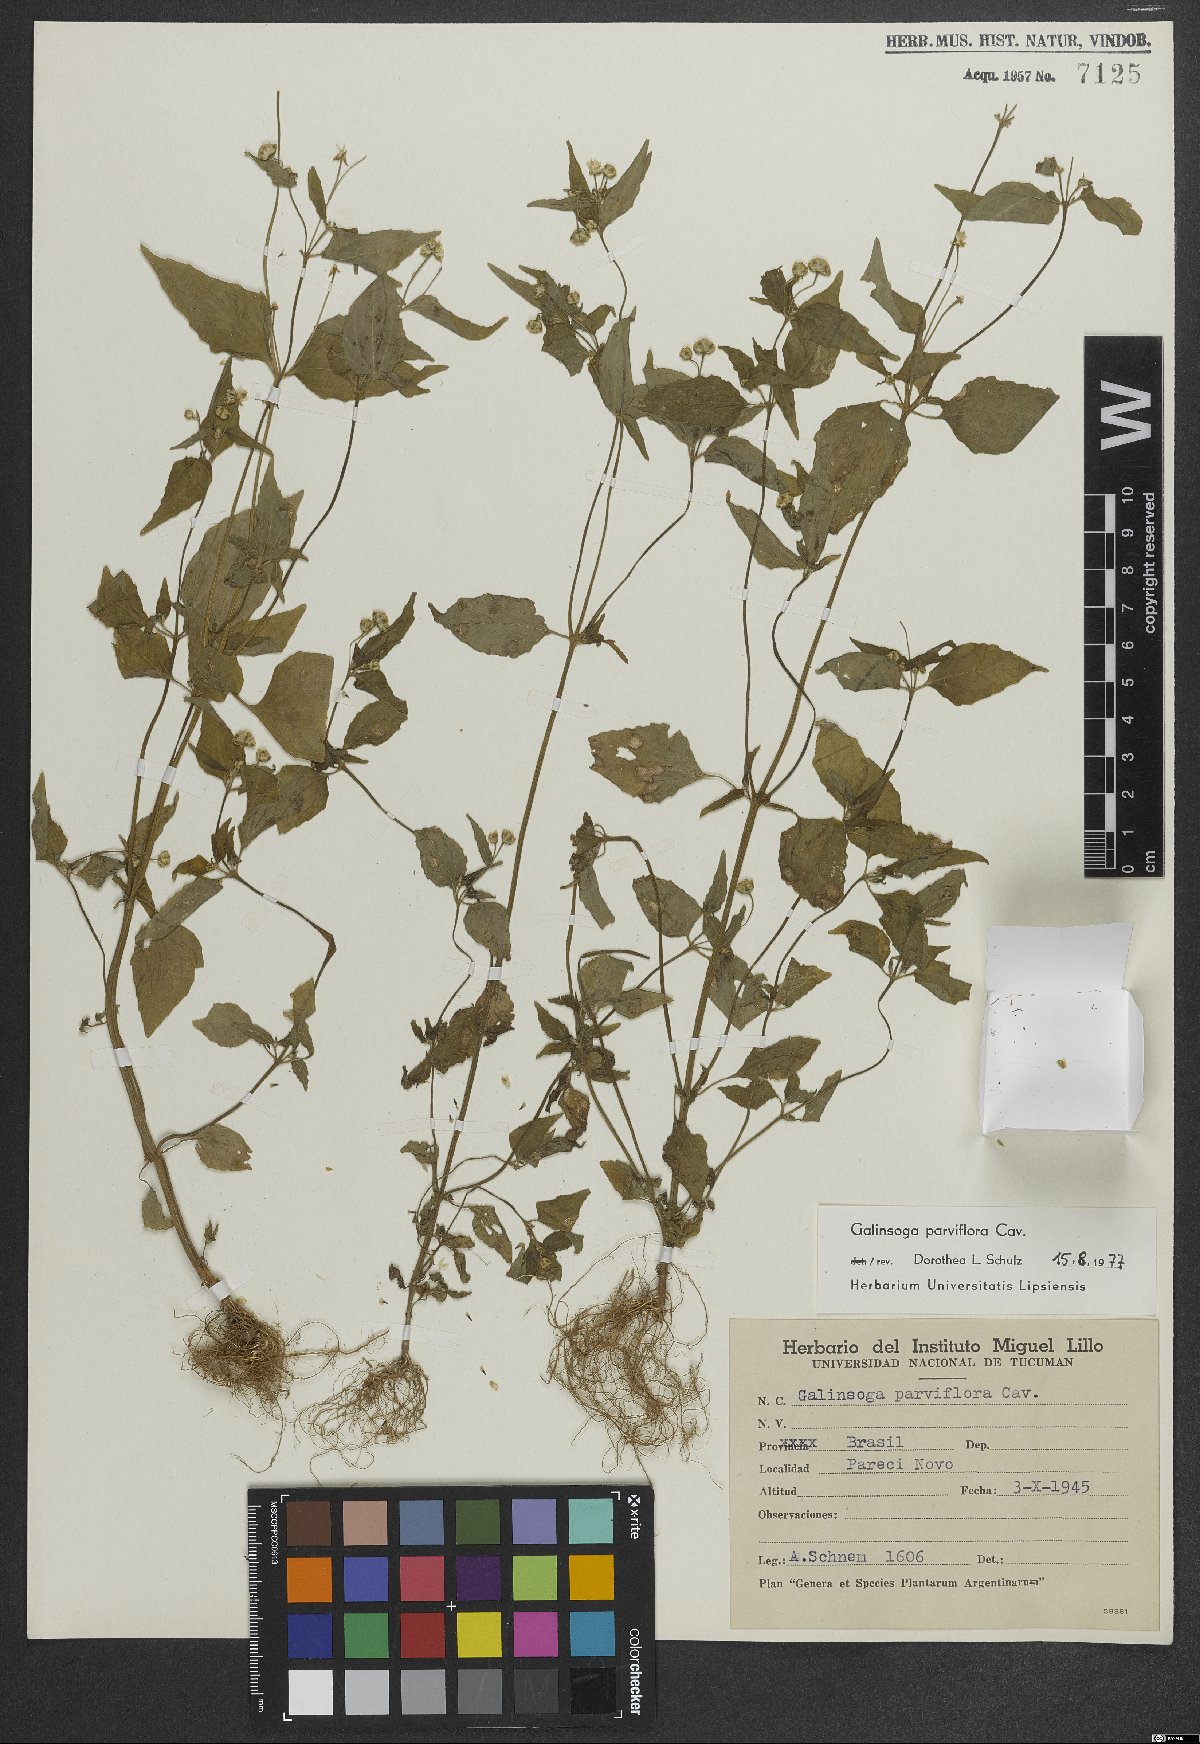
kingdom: Plantae
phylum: Tracheophyta
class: Magnoliopsida
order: Asterales
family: Asteraceae
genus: Galinsoga
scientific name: Galinsoga parviflora
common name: Gallant soldier
